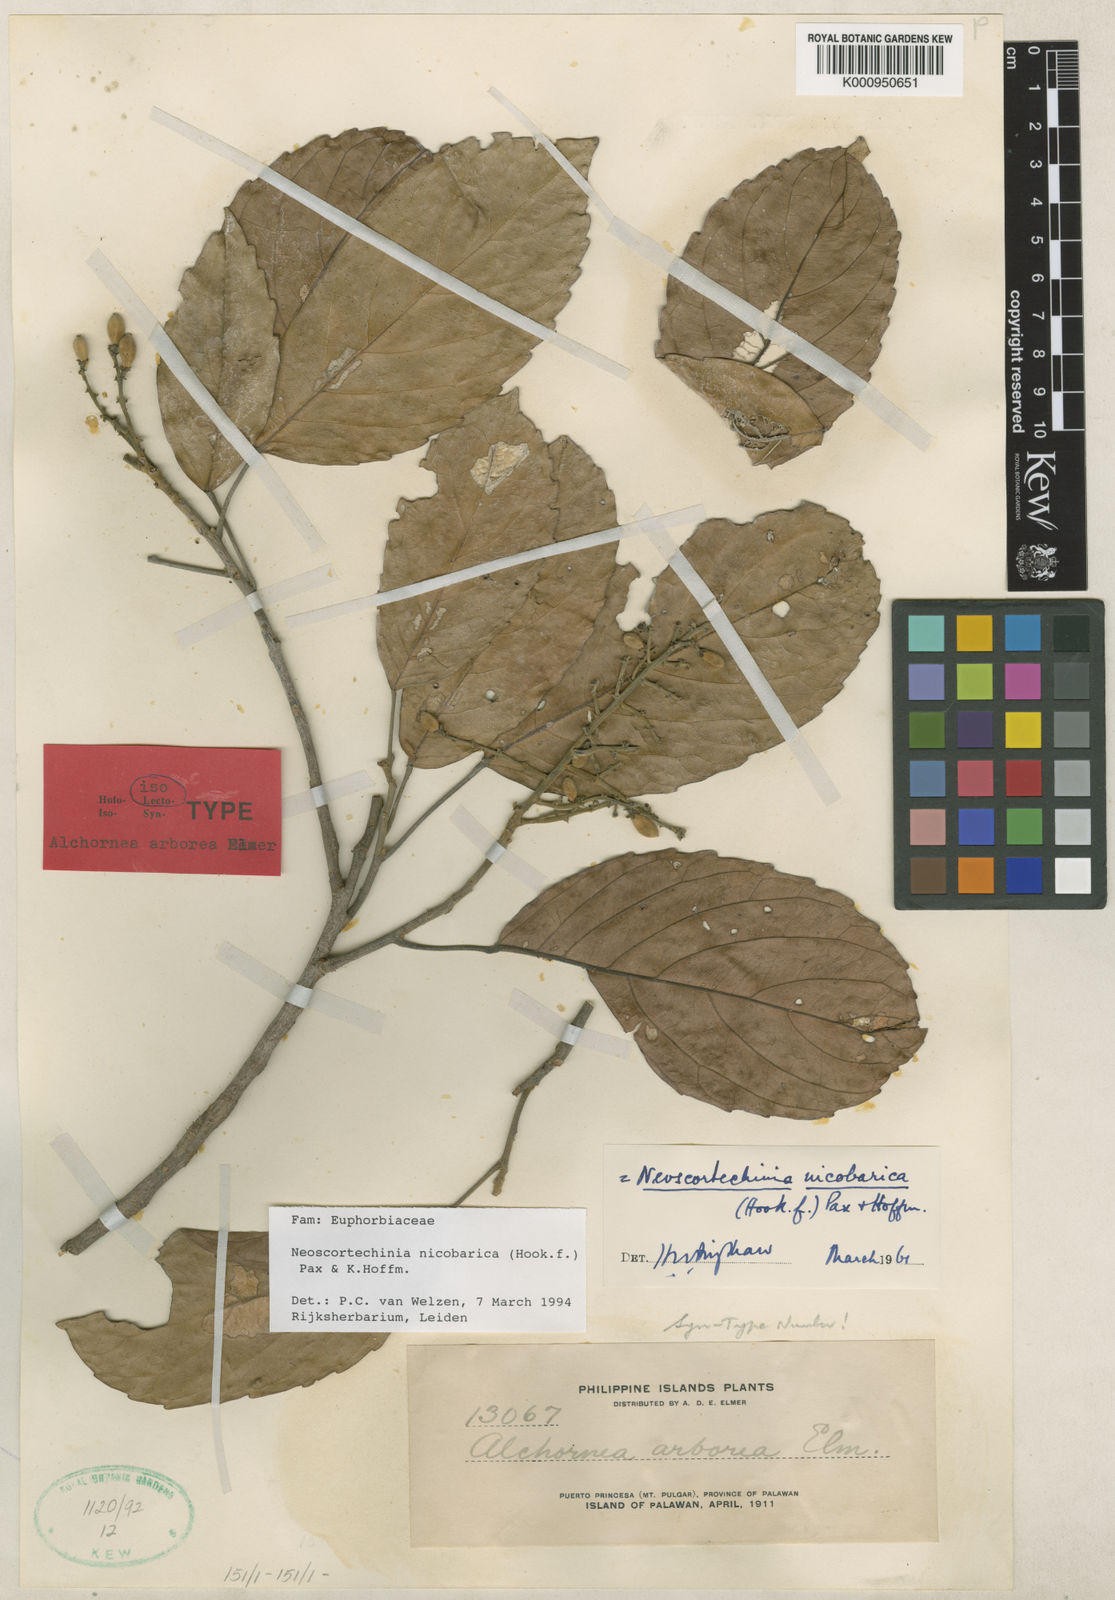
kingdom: Plantae
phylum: Tracheophyta
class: Magnoliopsida
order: Malpighiales
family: Euphorbiaceae
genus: Neoscortechinia
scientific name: Neoscortechinia nicobarica
